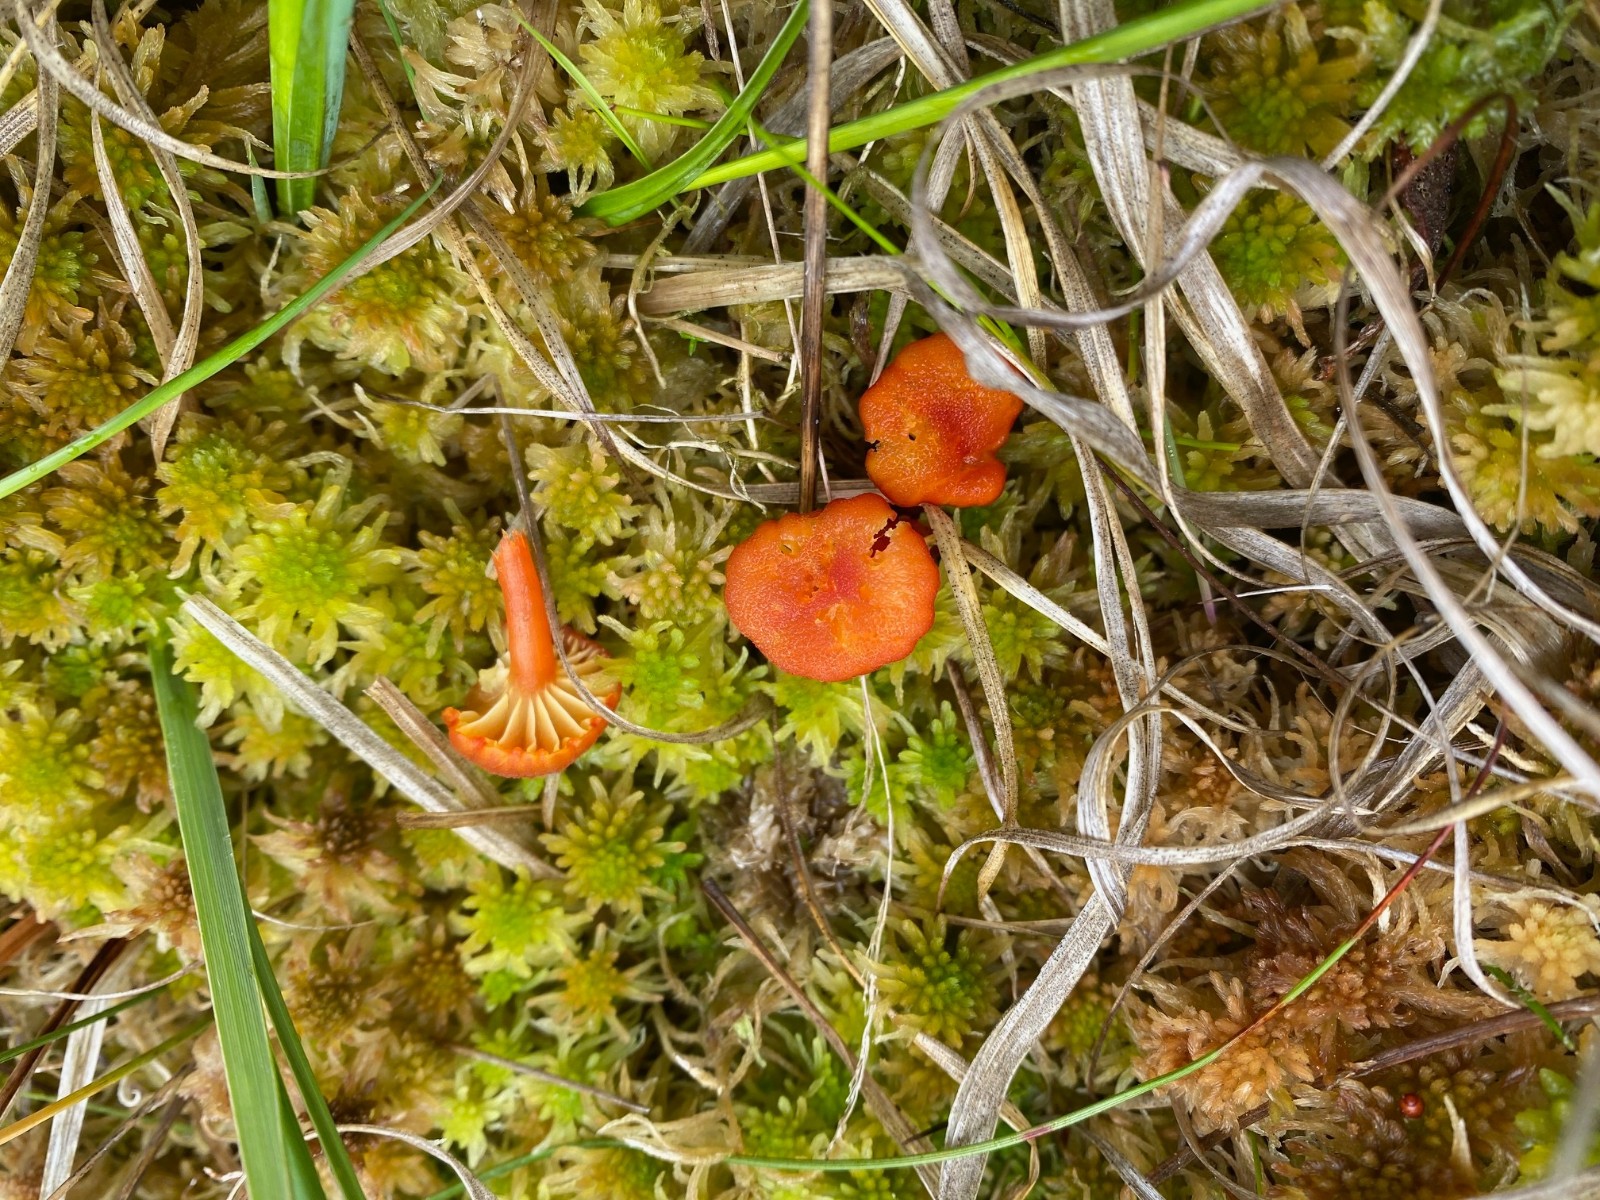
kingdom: Fungi
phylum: Basidiomycota
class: Agaricomycetes
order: Agaricales
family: Hygrophoraceae
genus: Hygrocybe
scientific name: Hygrocybe coccineocrenata
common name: tørvemos-vokshat
